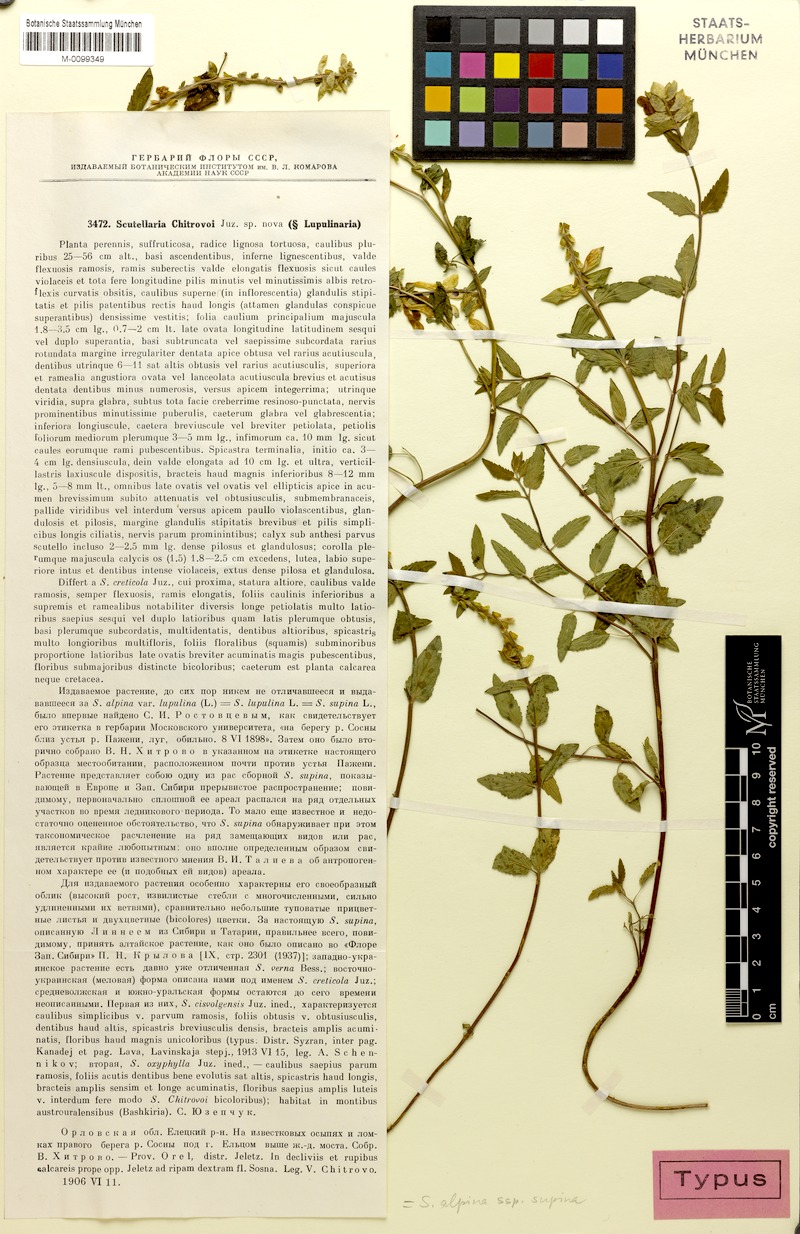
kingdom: Plantae
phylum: Tracheophyta
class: Magnoliopsida
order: Lamiales
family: Lamiaceae
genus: Scutellaria
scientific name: Scutellaria supina
